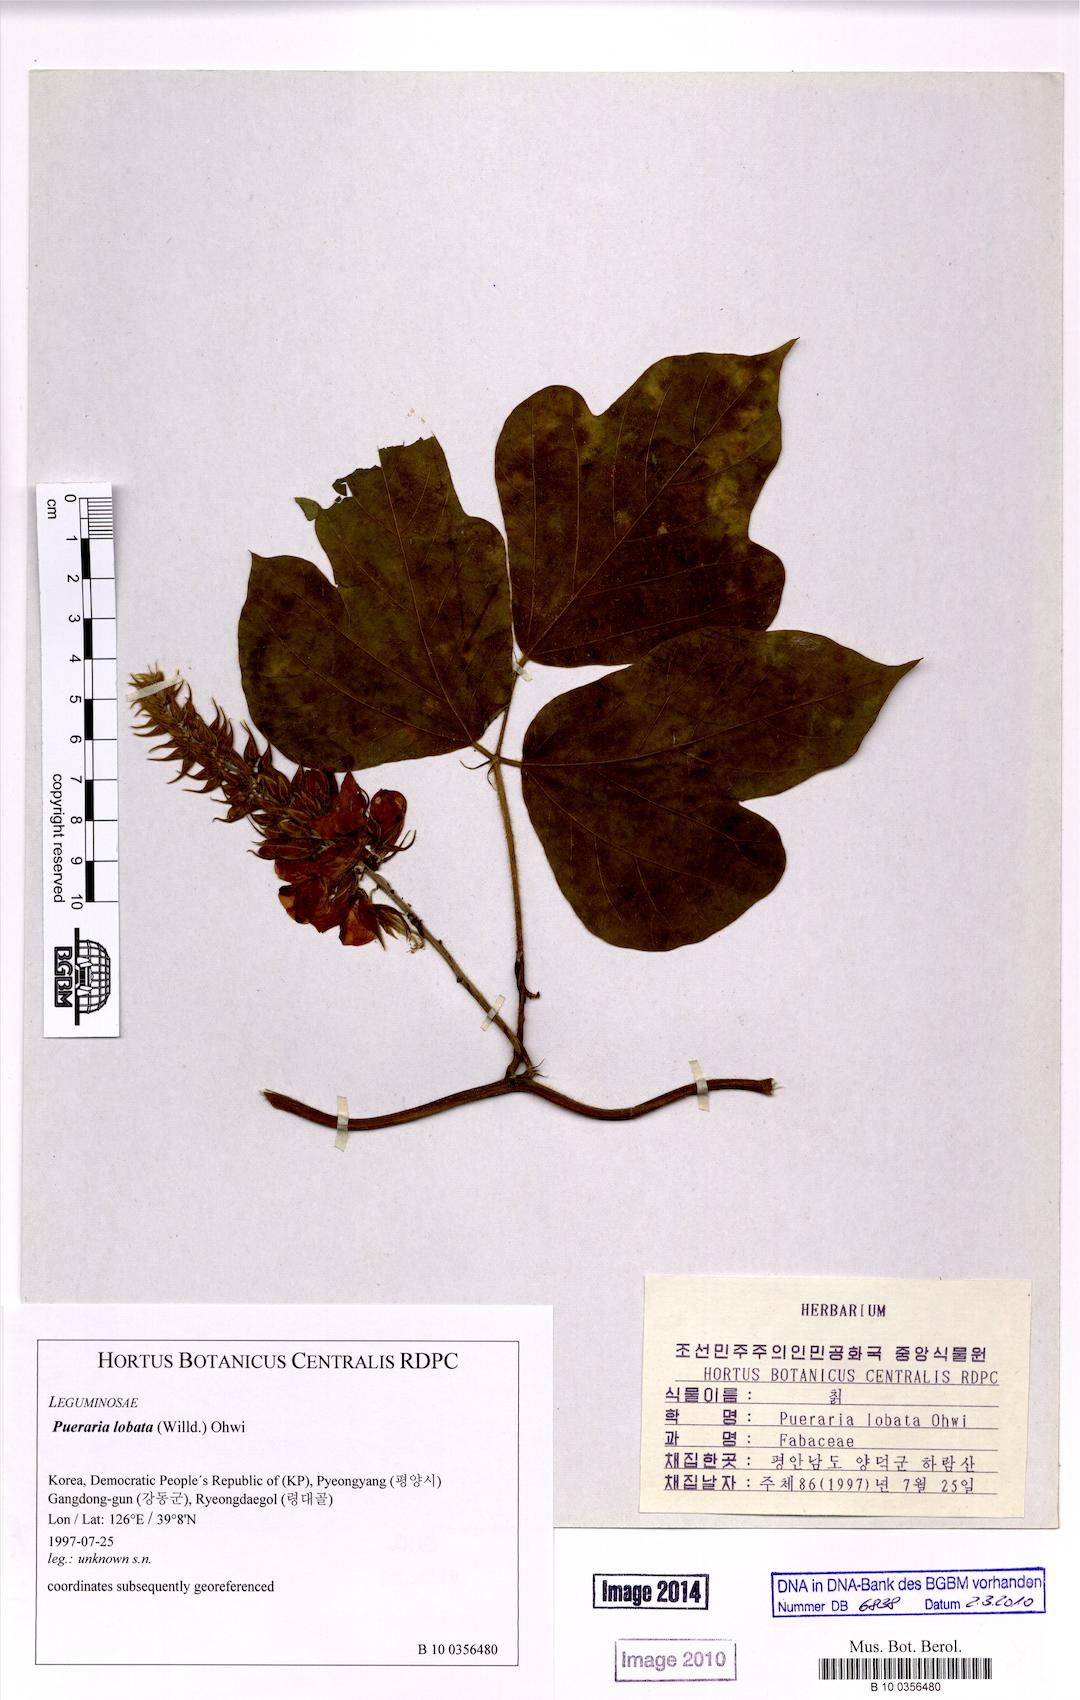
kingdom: Plantae
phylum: Tracheophyta
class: Magnoliopsida
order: Fabales
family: Fabaceae
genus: Pueraria
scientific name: Pueraria montana
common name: Kudzu
